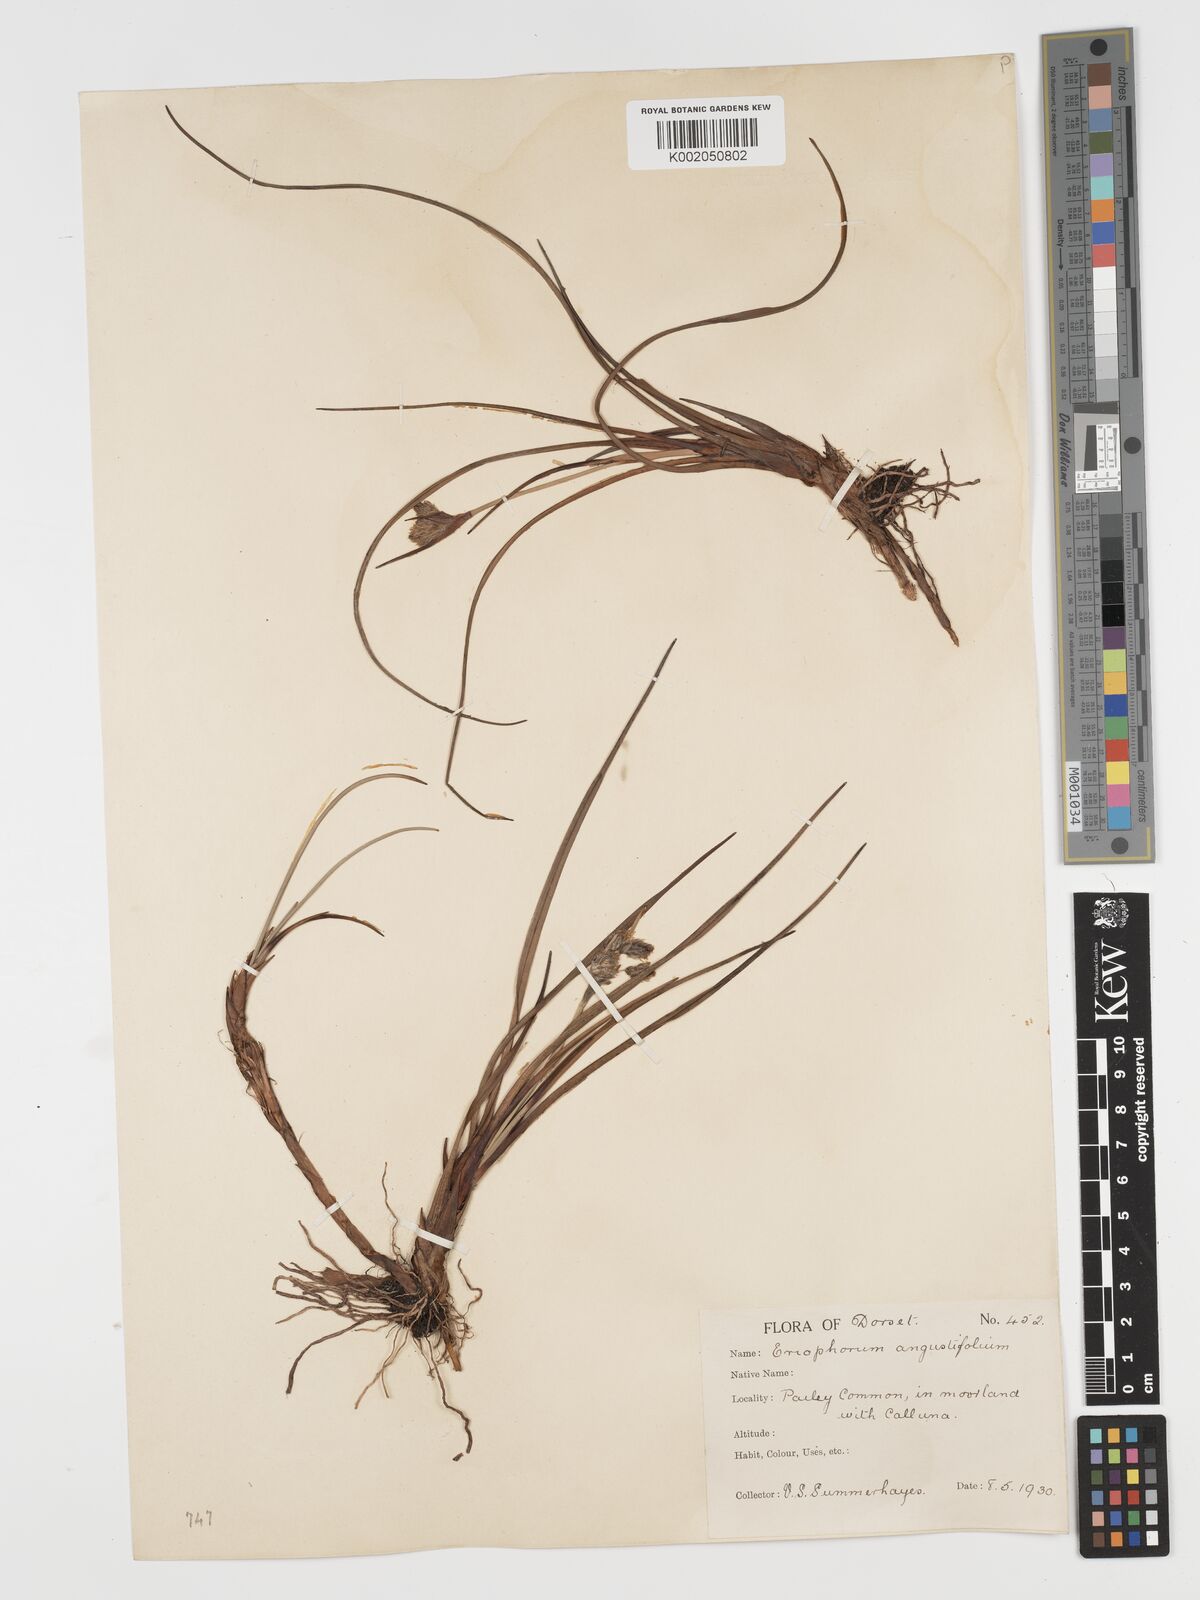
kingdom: Plantae
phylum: Tracheophyta
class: Liliopsida
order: Poales
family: Cyperaceae
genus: Eriophorum
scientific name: Eriophorum angustifolium
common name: Common cottongrass
